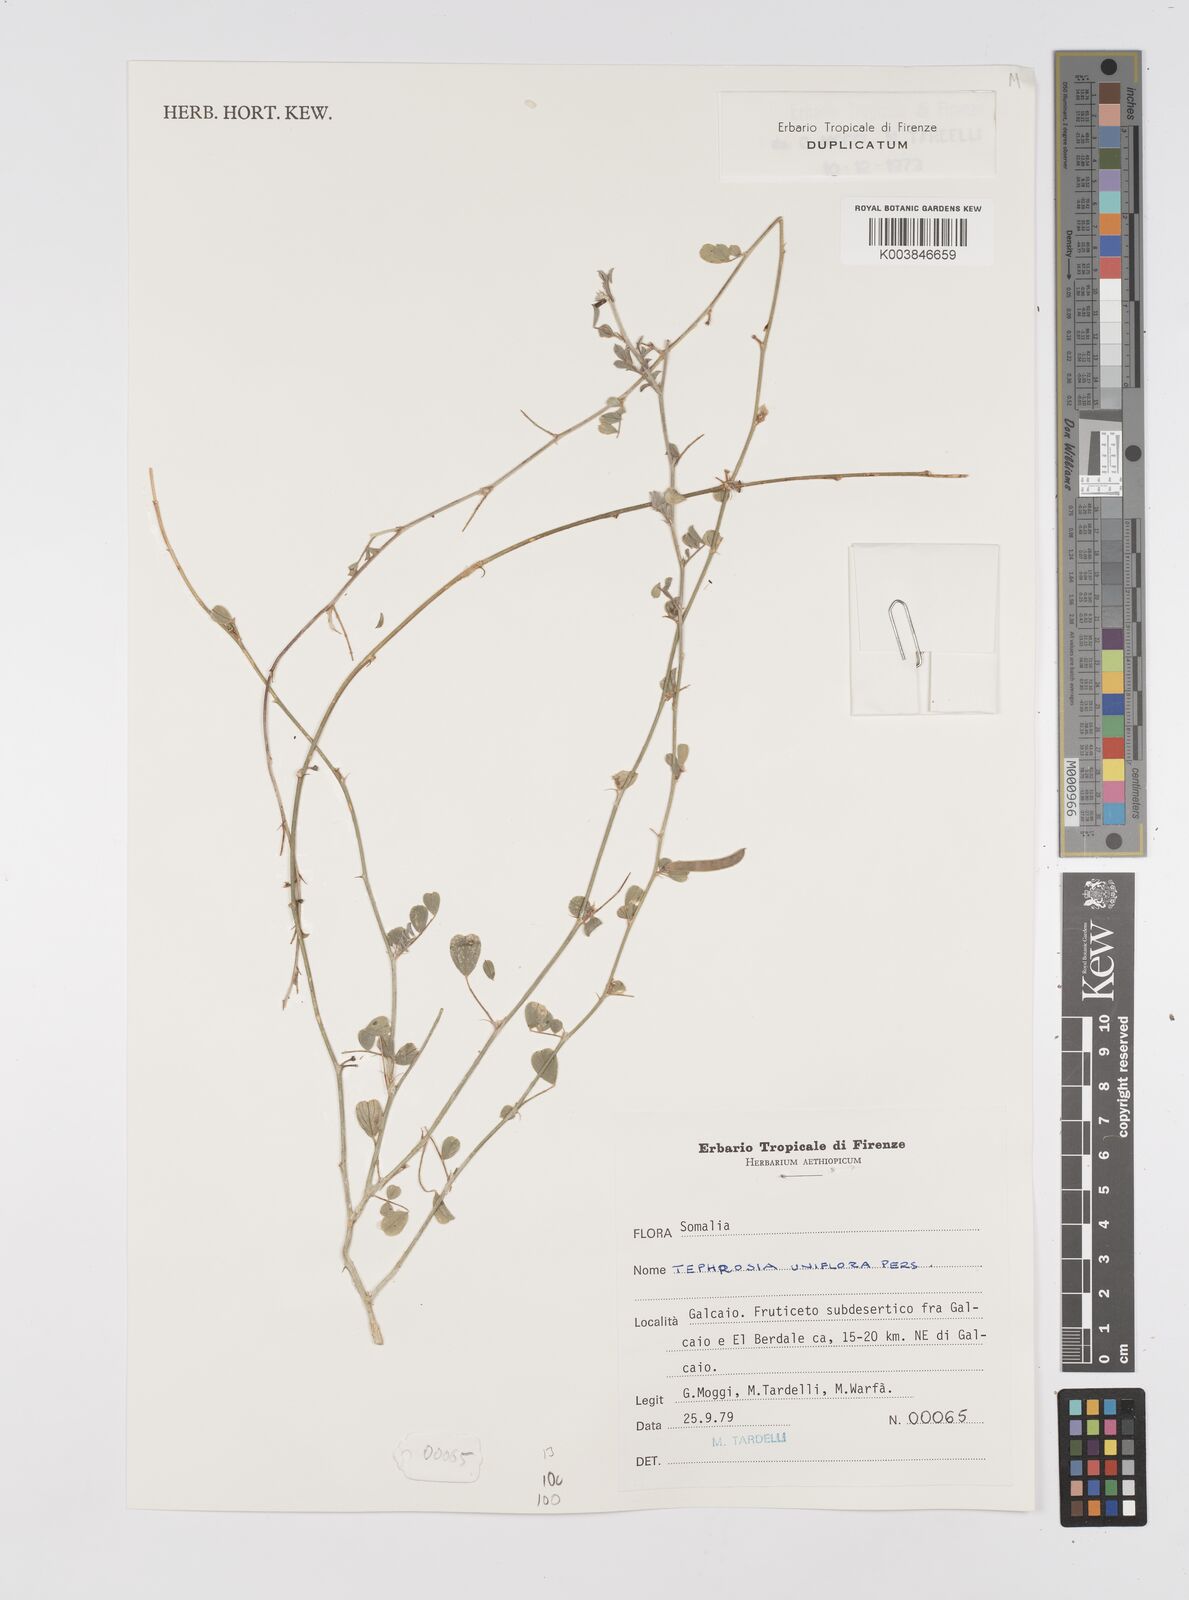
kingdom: Plantae
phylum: Tracheophyta
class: Magnoliopsida
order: Fabales
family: Fabaceae
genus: Tephrosia
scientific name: Tephrosia uniflora
